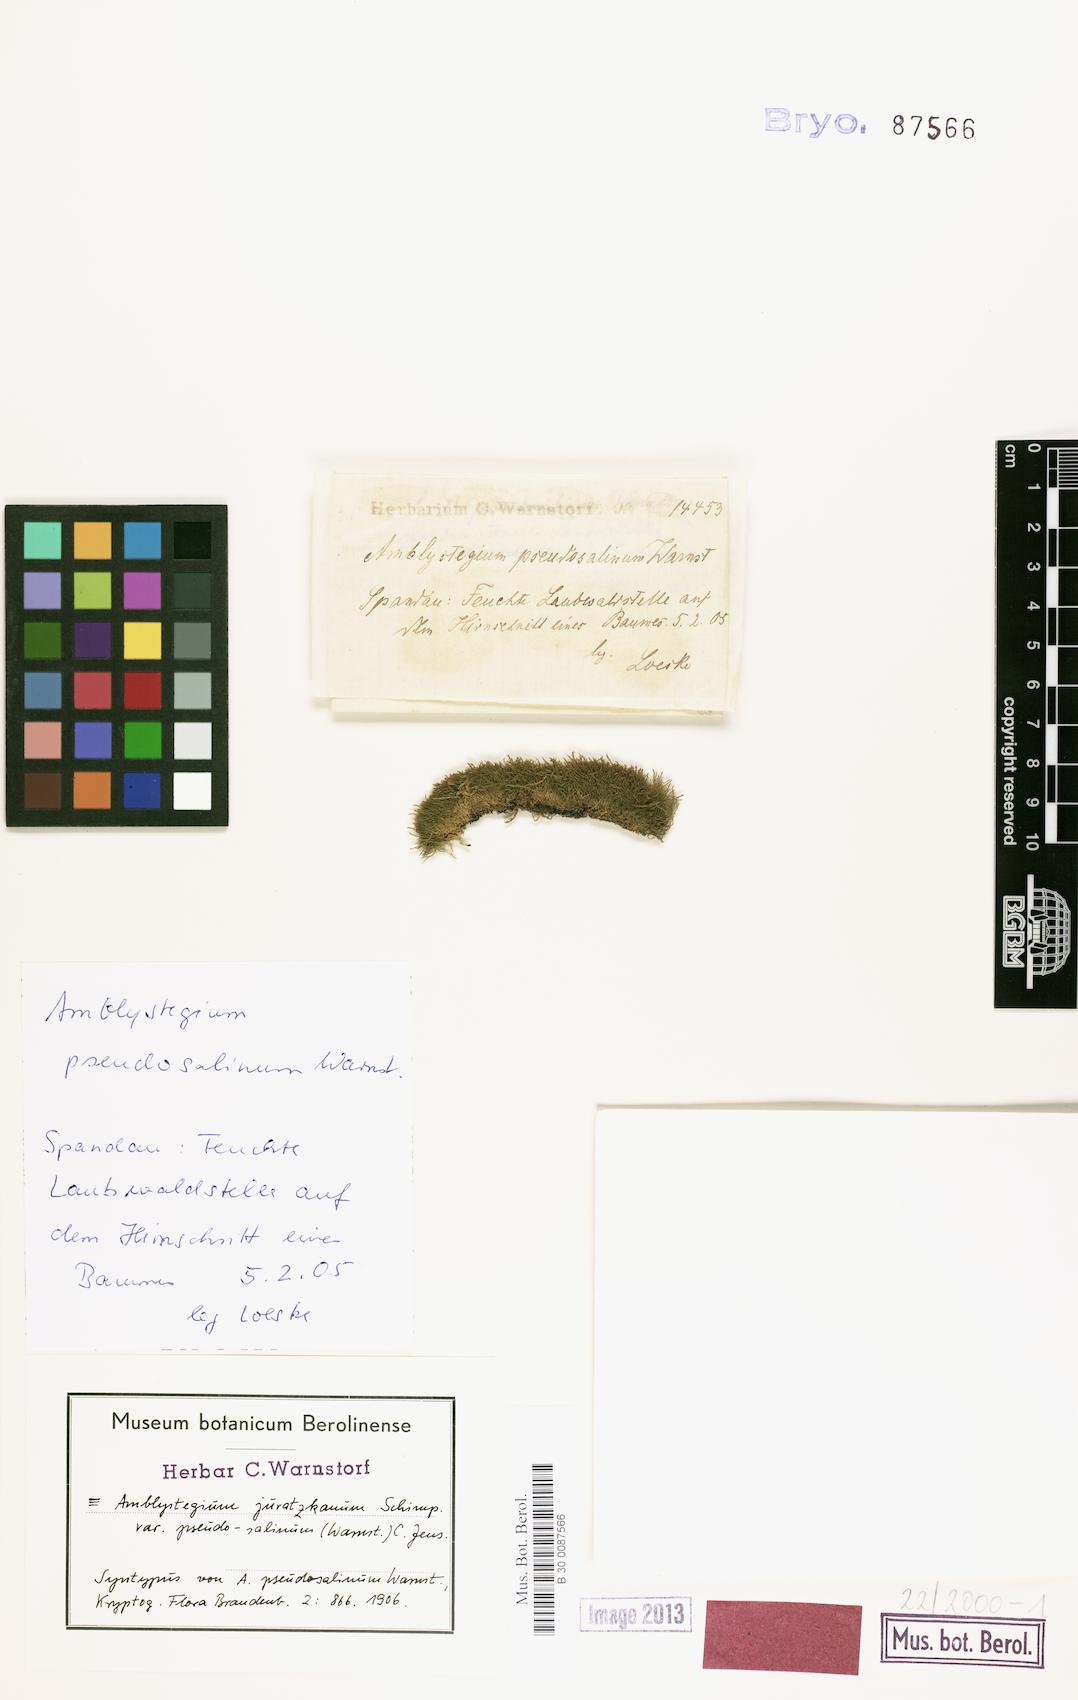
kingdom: Plantae
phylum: Bryophyta
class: Bryopsida
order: Hypnales
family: Amblystegiaceae
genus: Amblystegium
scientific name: Amblystegium serpens
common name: Jurkatzka's feather moss
